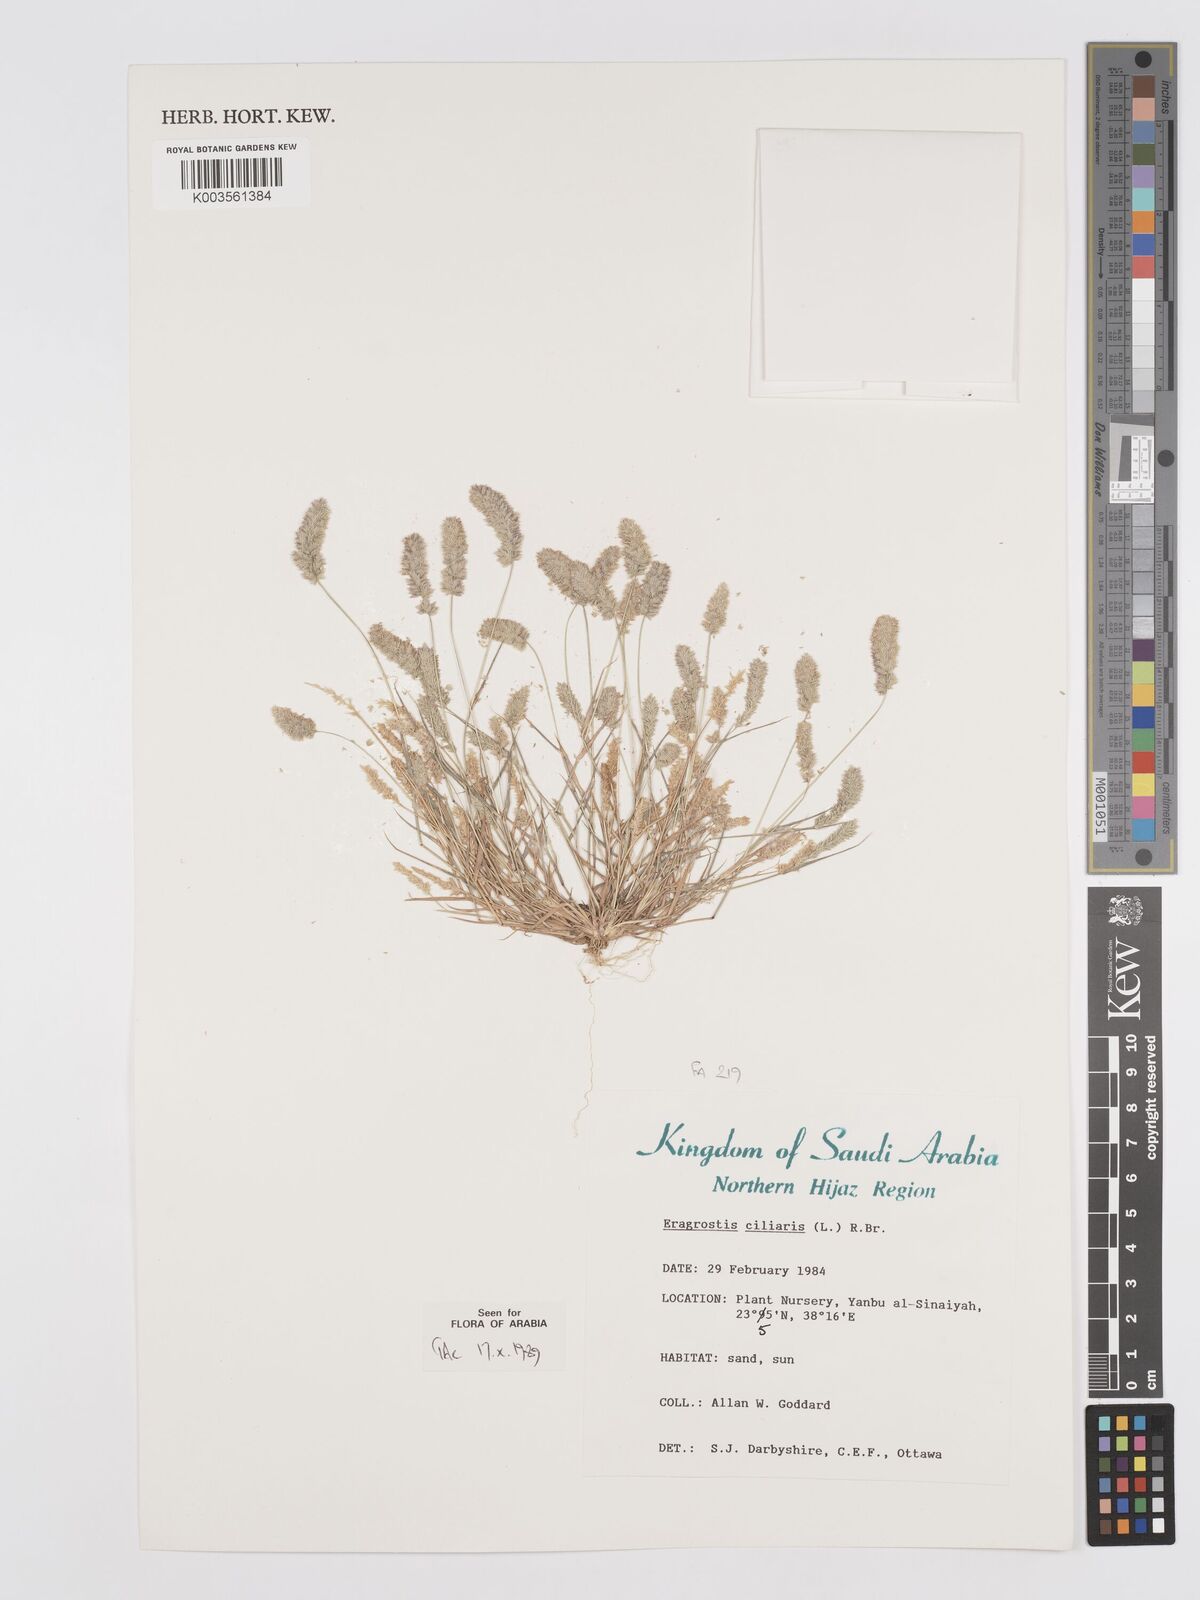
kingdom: Plantae
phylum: Tracheophyta
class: Liliopsida
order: Poales
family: Poaceae
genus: Eragrostis
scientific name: Eragrostis ciliaris
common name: Gophertail lovegrass
